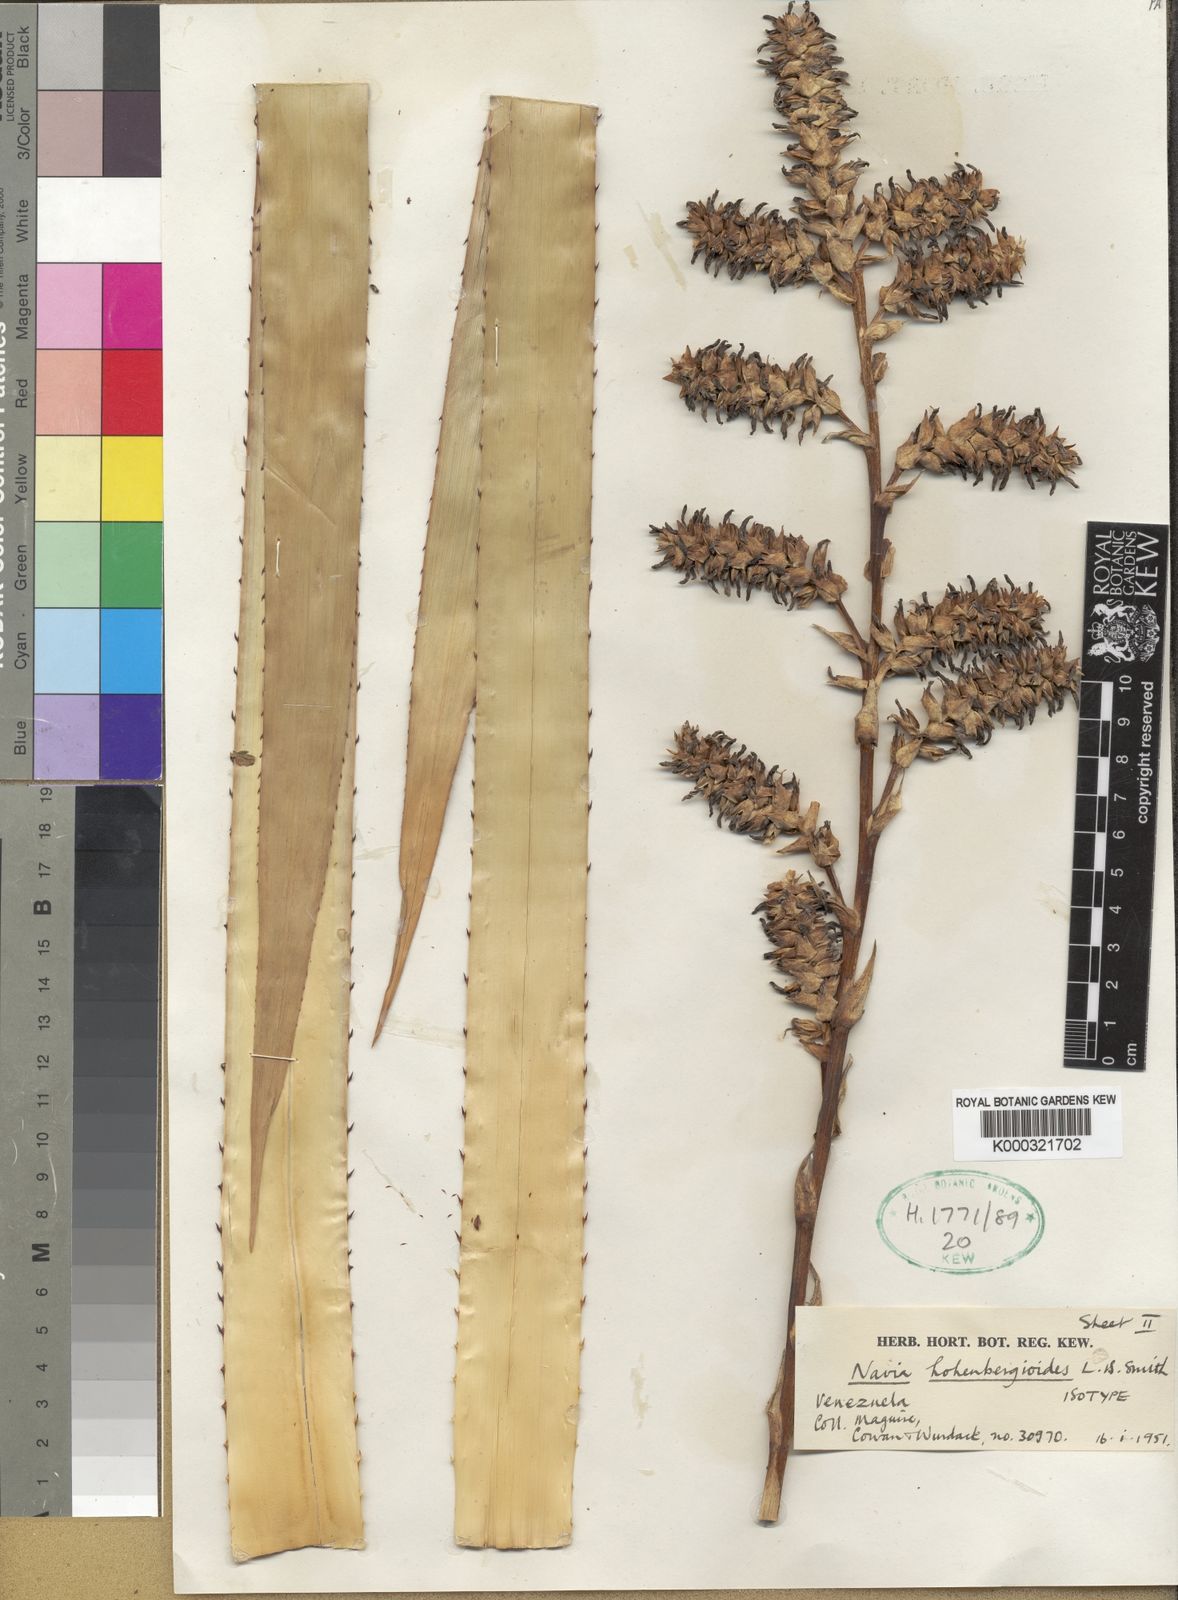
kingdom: Plantae
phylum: Tracheophyta
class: Liliopsida
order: Poales
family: Bromeliaceae
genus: Navia
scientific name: Navia hohenbergioides
